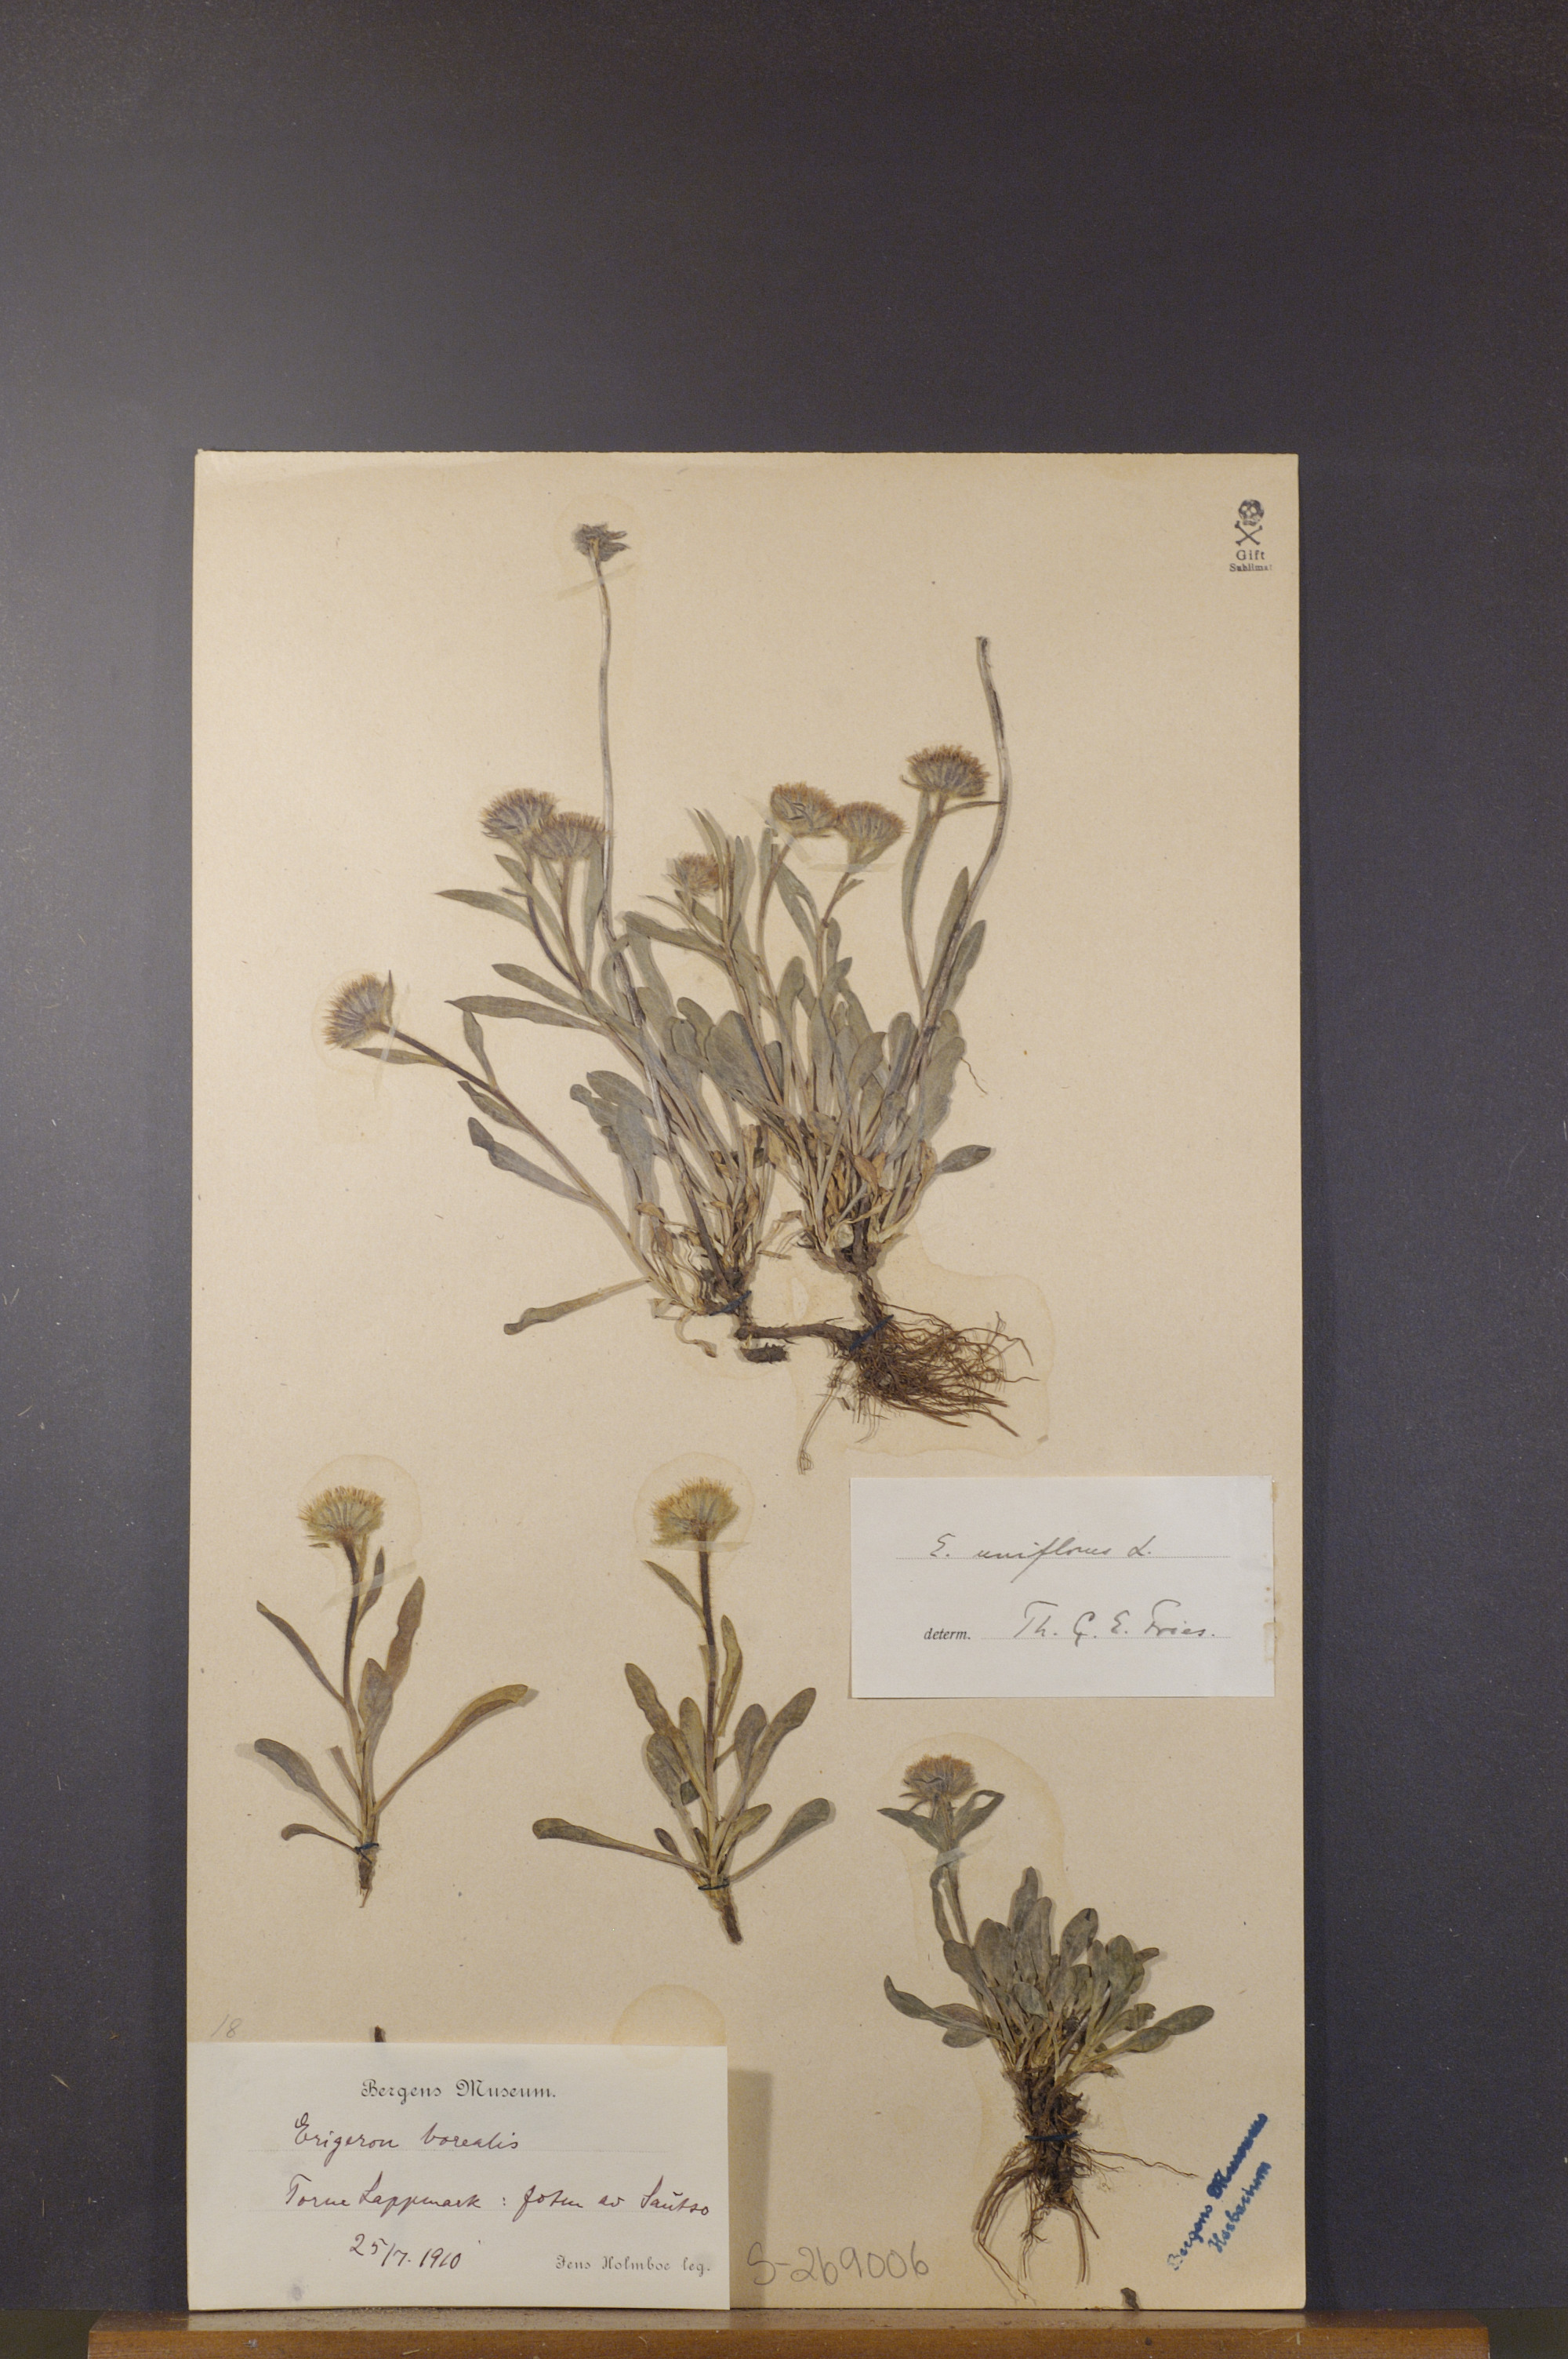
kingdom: Plantae
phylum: Tracheophyta
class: Magnoliopsida
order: Asterales
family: Asteraceae
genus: Erigeron
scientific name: Erigeron uniflorus
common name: Northern daisy
